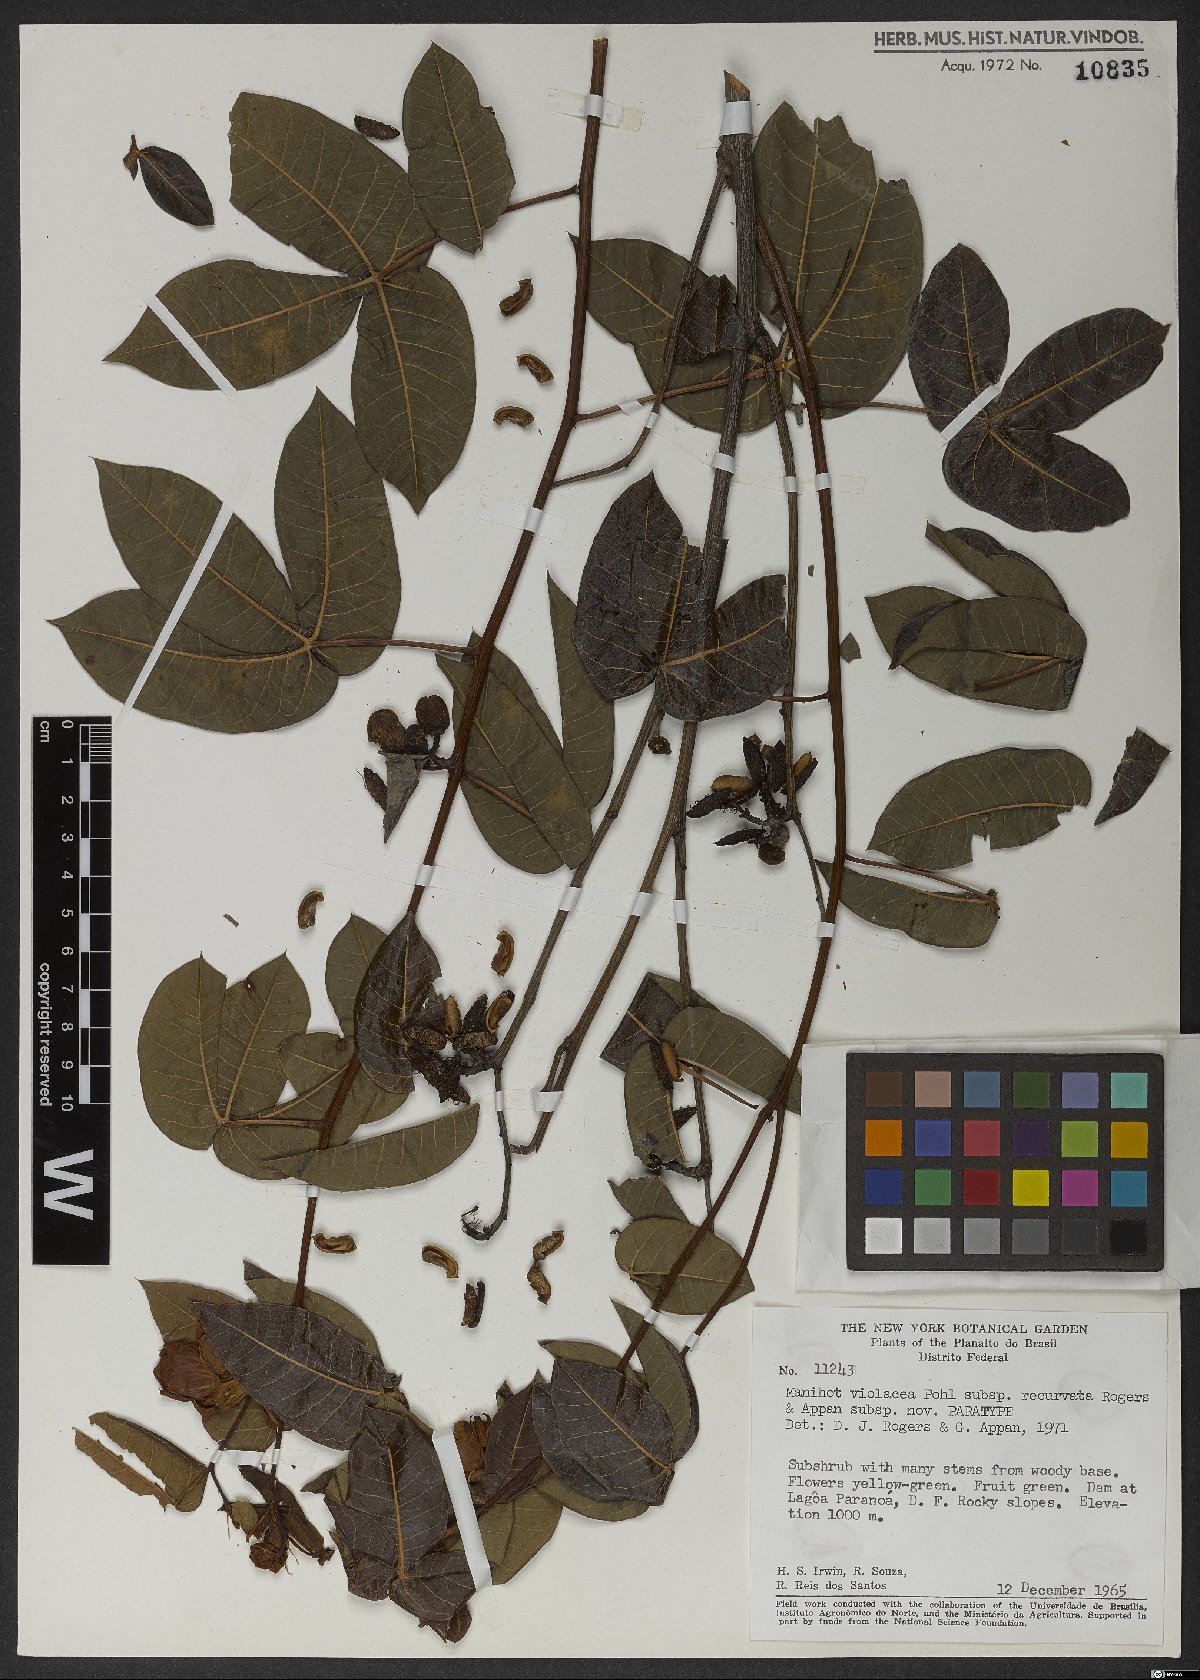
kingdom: Plantae
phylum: Tracheophyta
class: Magnoliopsida
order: Malpighiales
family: Euphorbiaceae
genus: Manihot
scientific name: Manihot violacea
